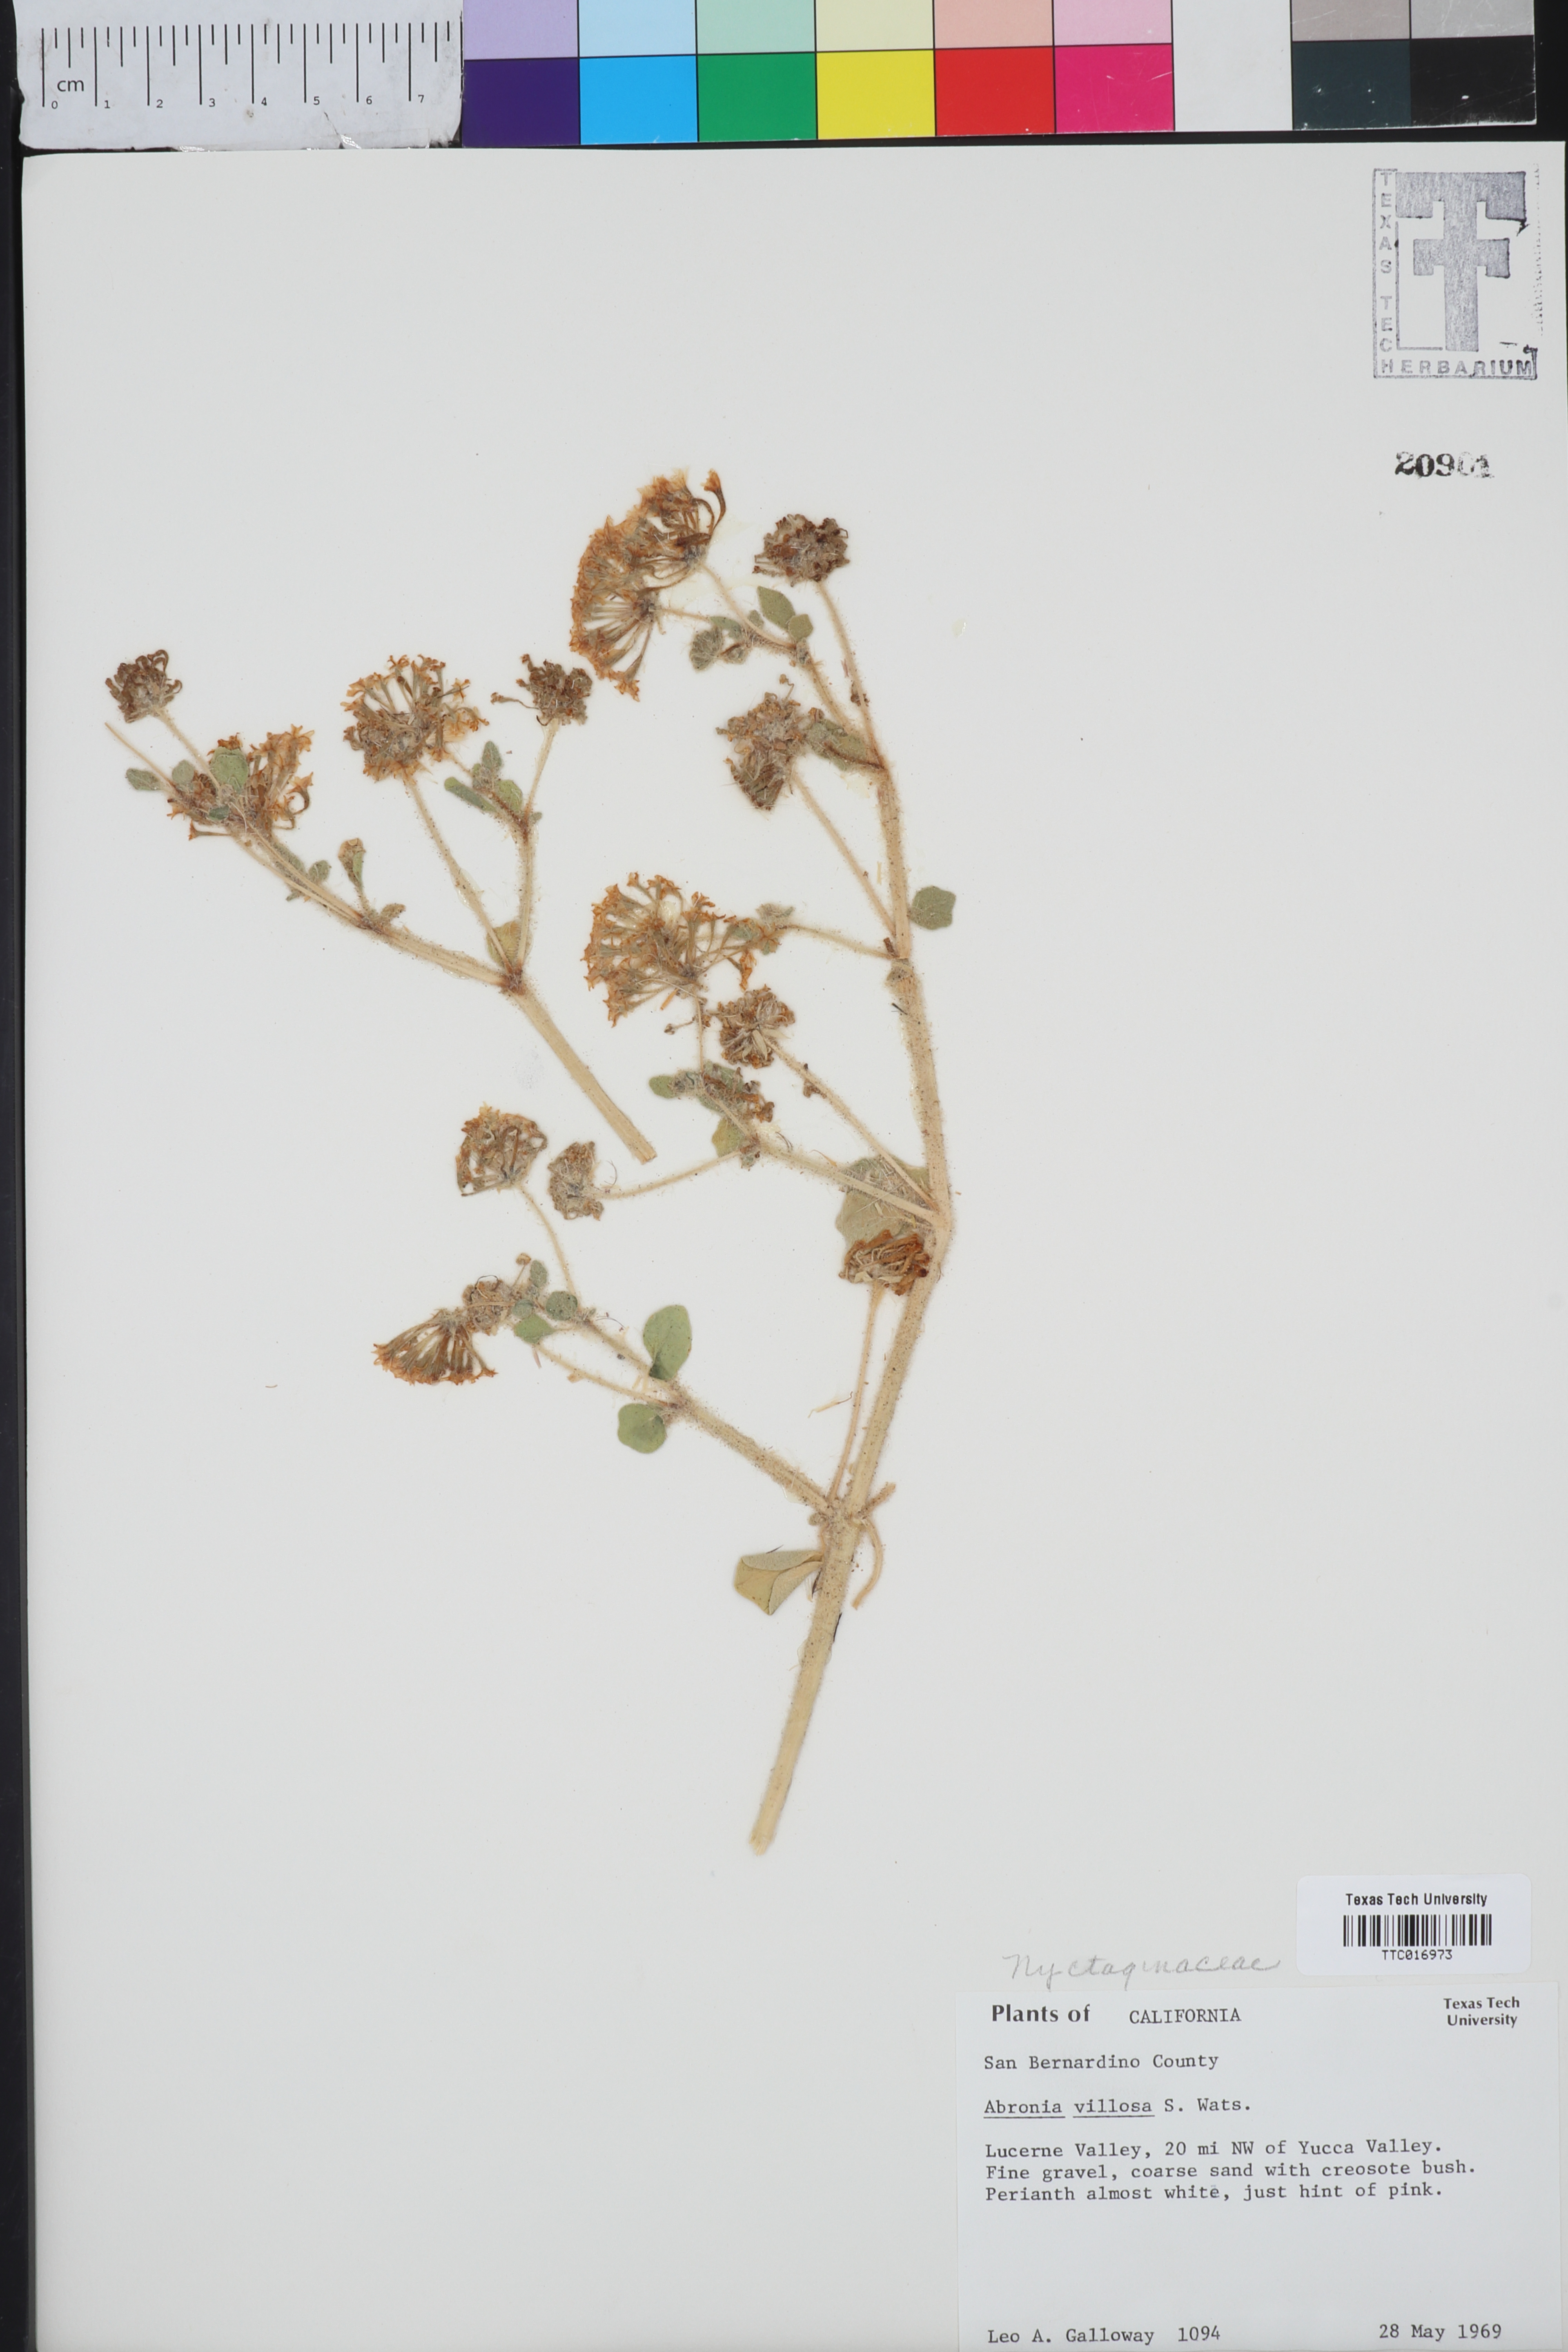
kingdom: Plantae
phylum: Tracheophyta
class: Magnoliopsida
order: Caryophyllales
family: Nyctaginaceae
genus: Abronia
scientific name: Abronia villosa
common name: Desert sand-verbena
